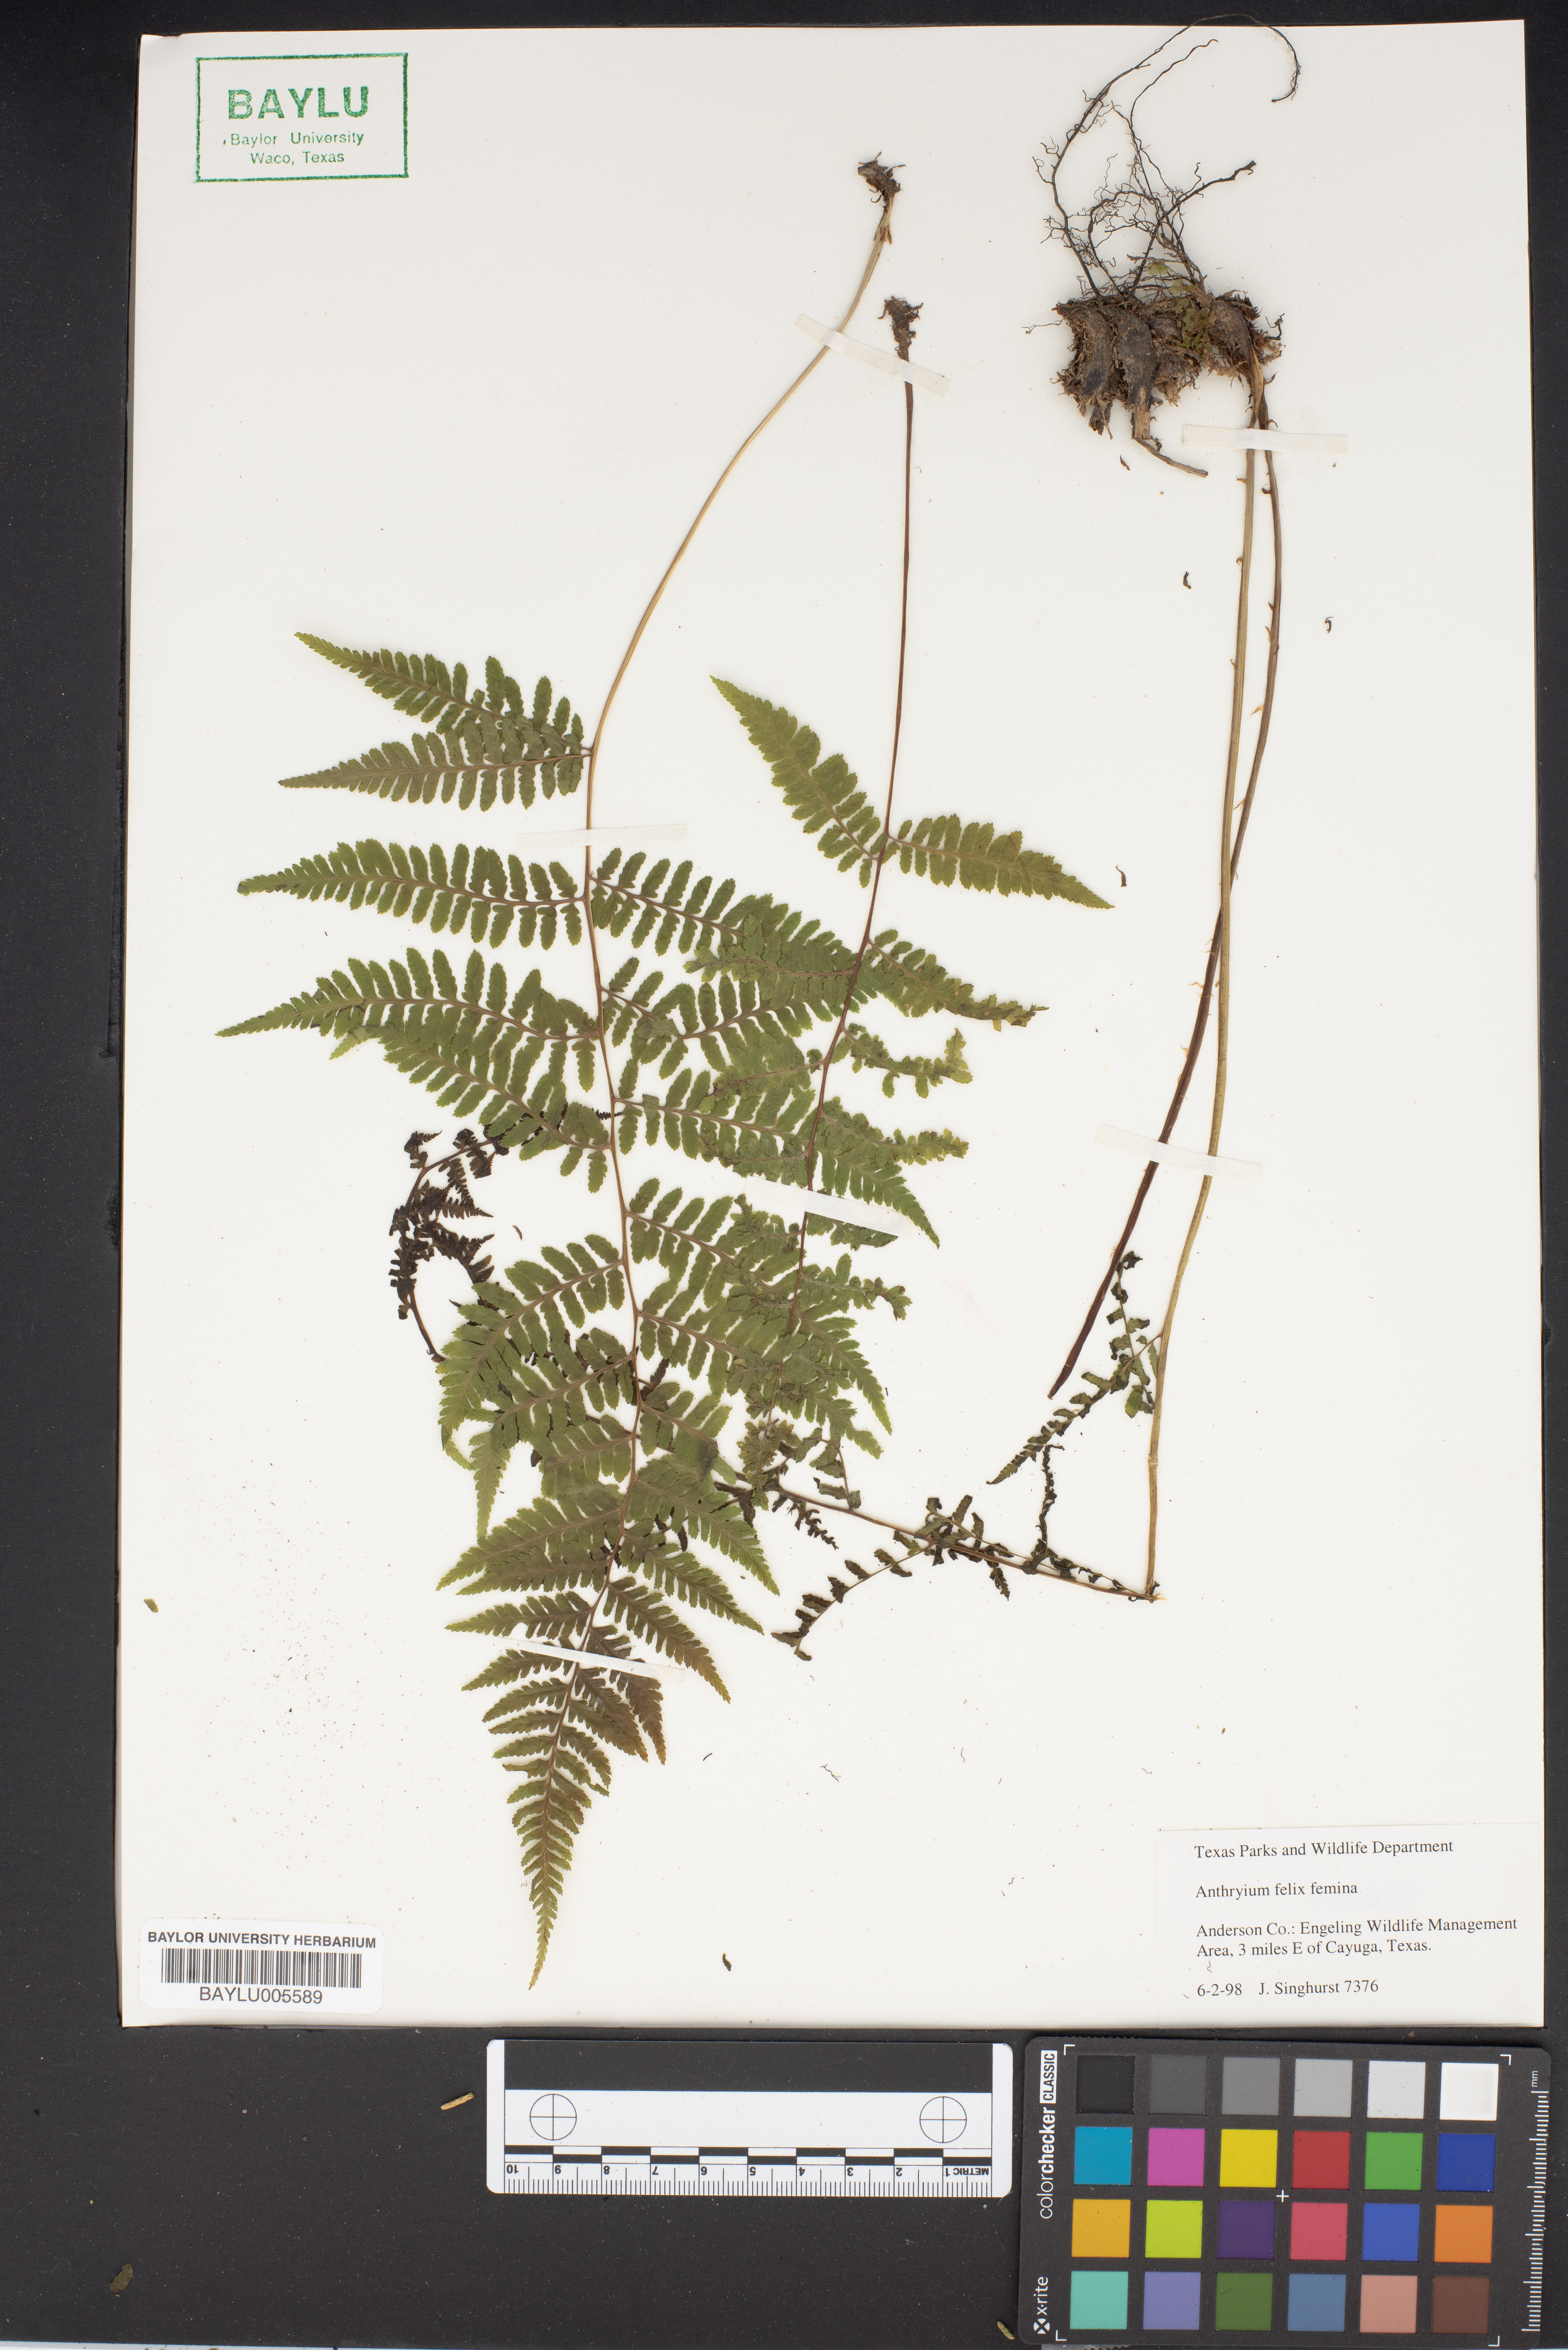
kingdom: Plantae
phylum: Tracheophyta
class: Polypodiopsida
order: Polypodiales
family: Athyriaceae
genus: Athyrium
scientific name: Athyrium filix-femina
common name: Lady fern
